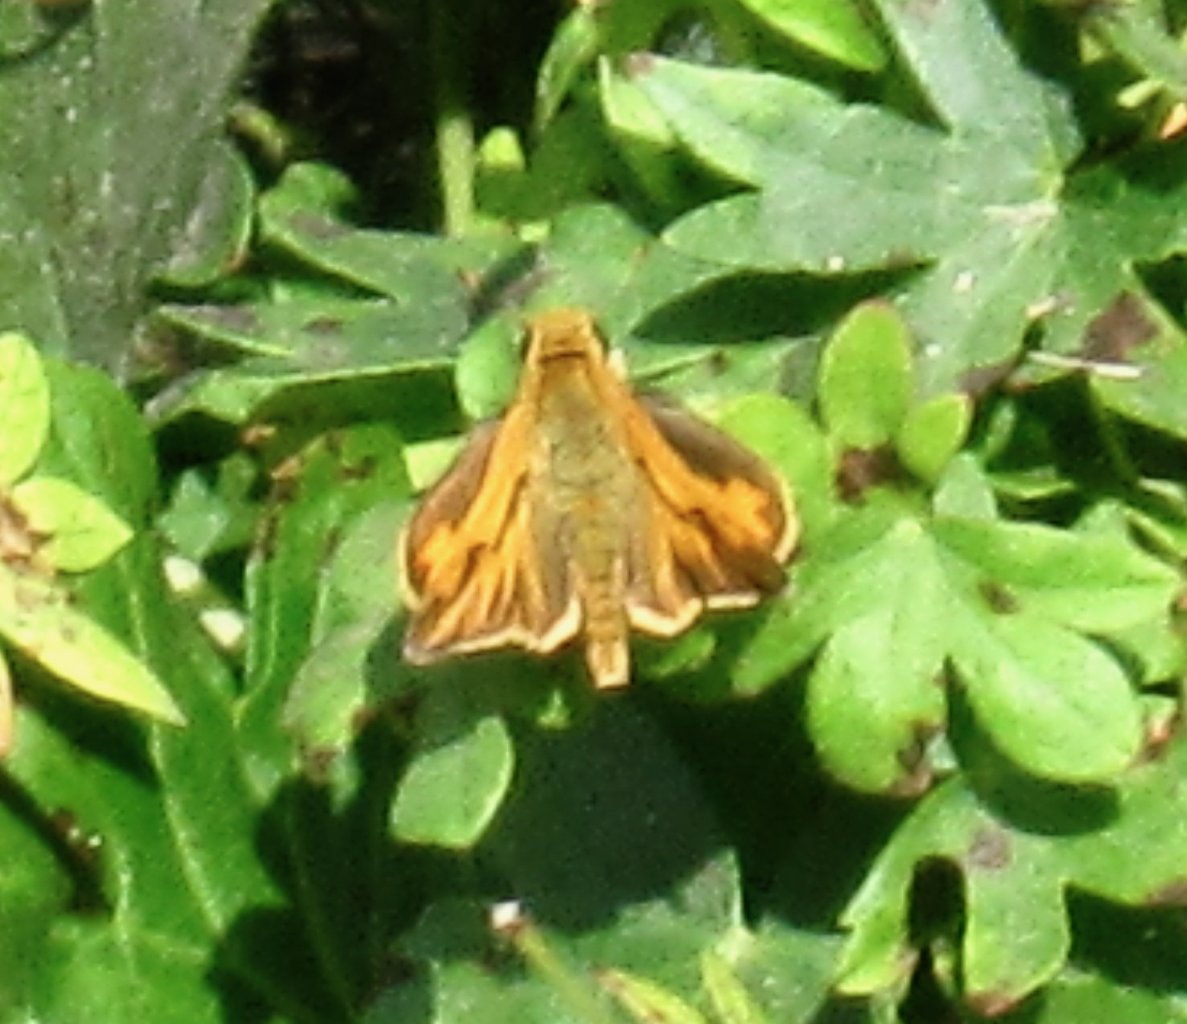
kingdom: Animalia
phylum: Arthropoda
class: Insecta
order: Lepidoptera
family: Hesperiidae
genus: Hylephila
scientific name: Hylephila phyleus
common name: Fiery Skipper
